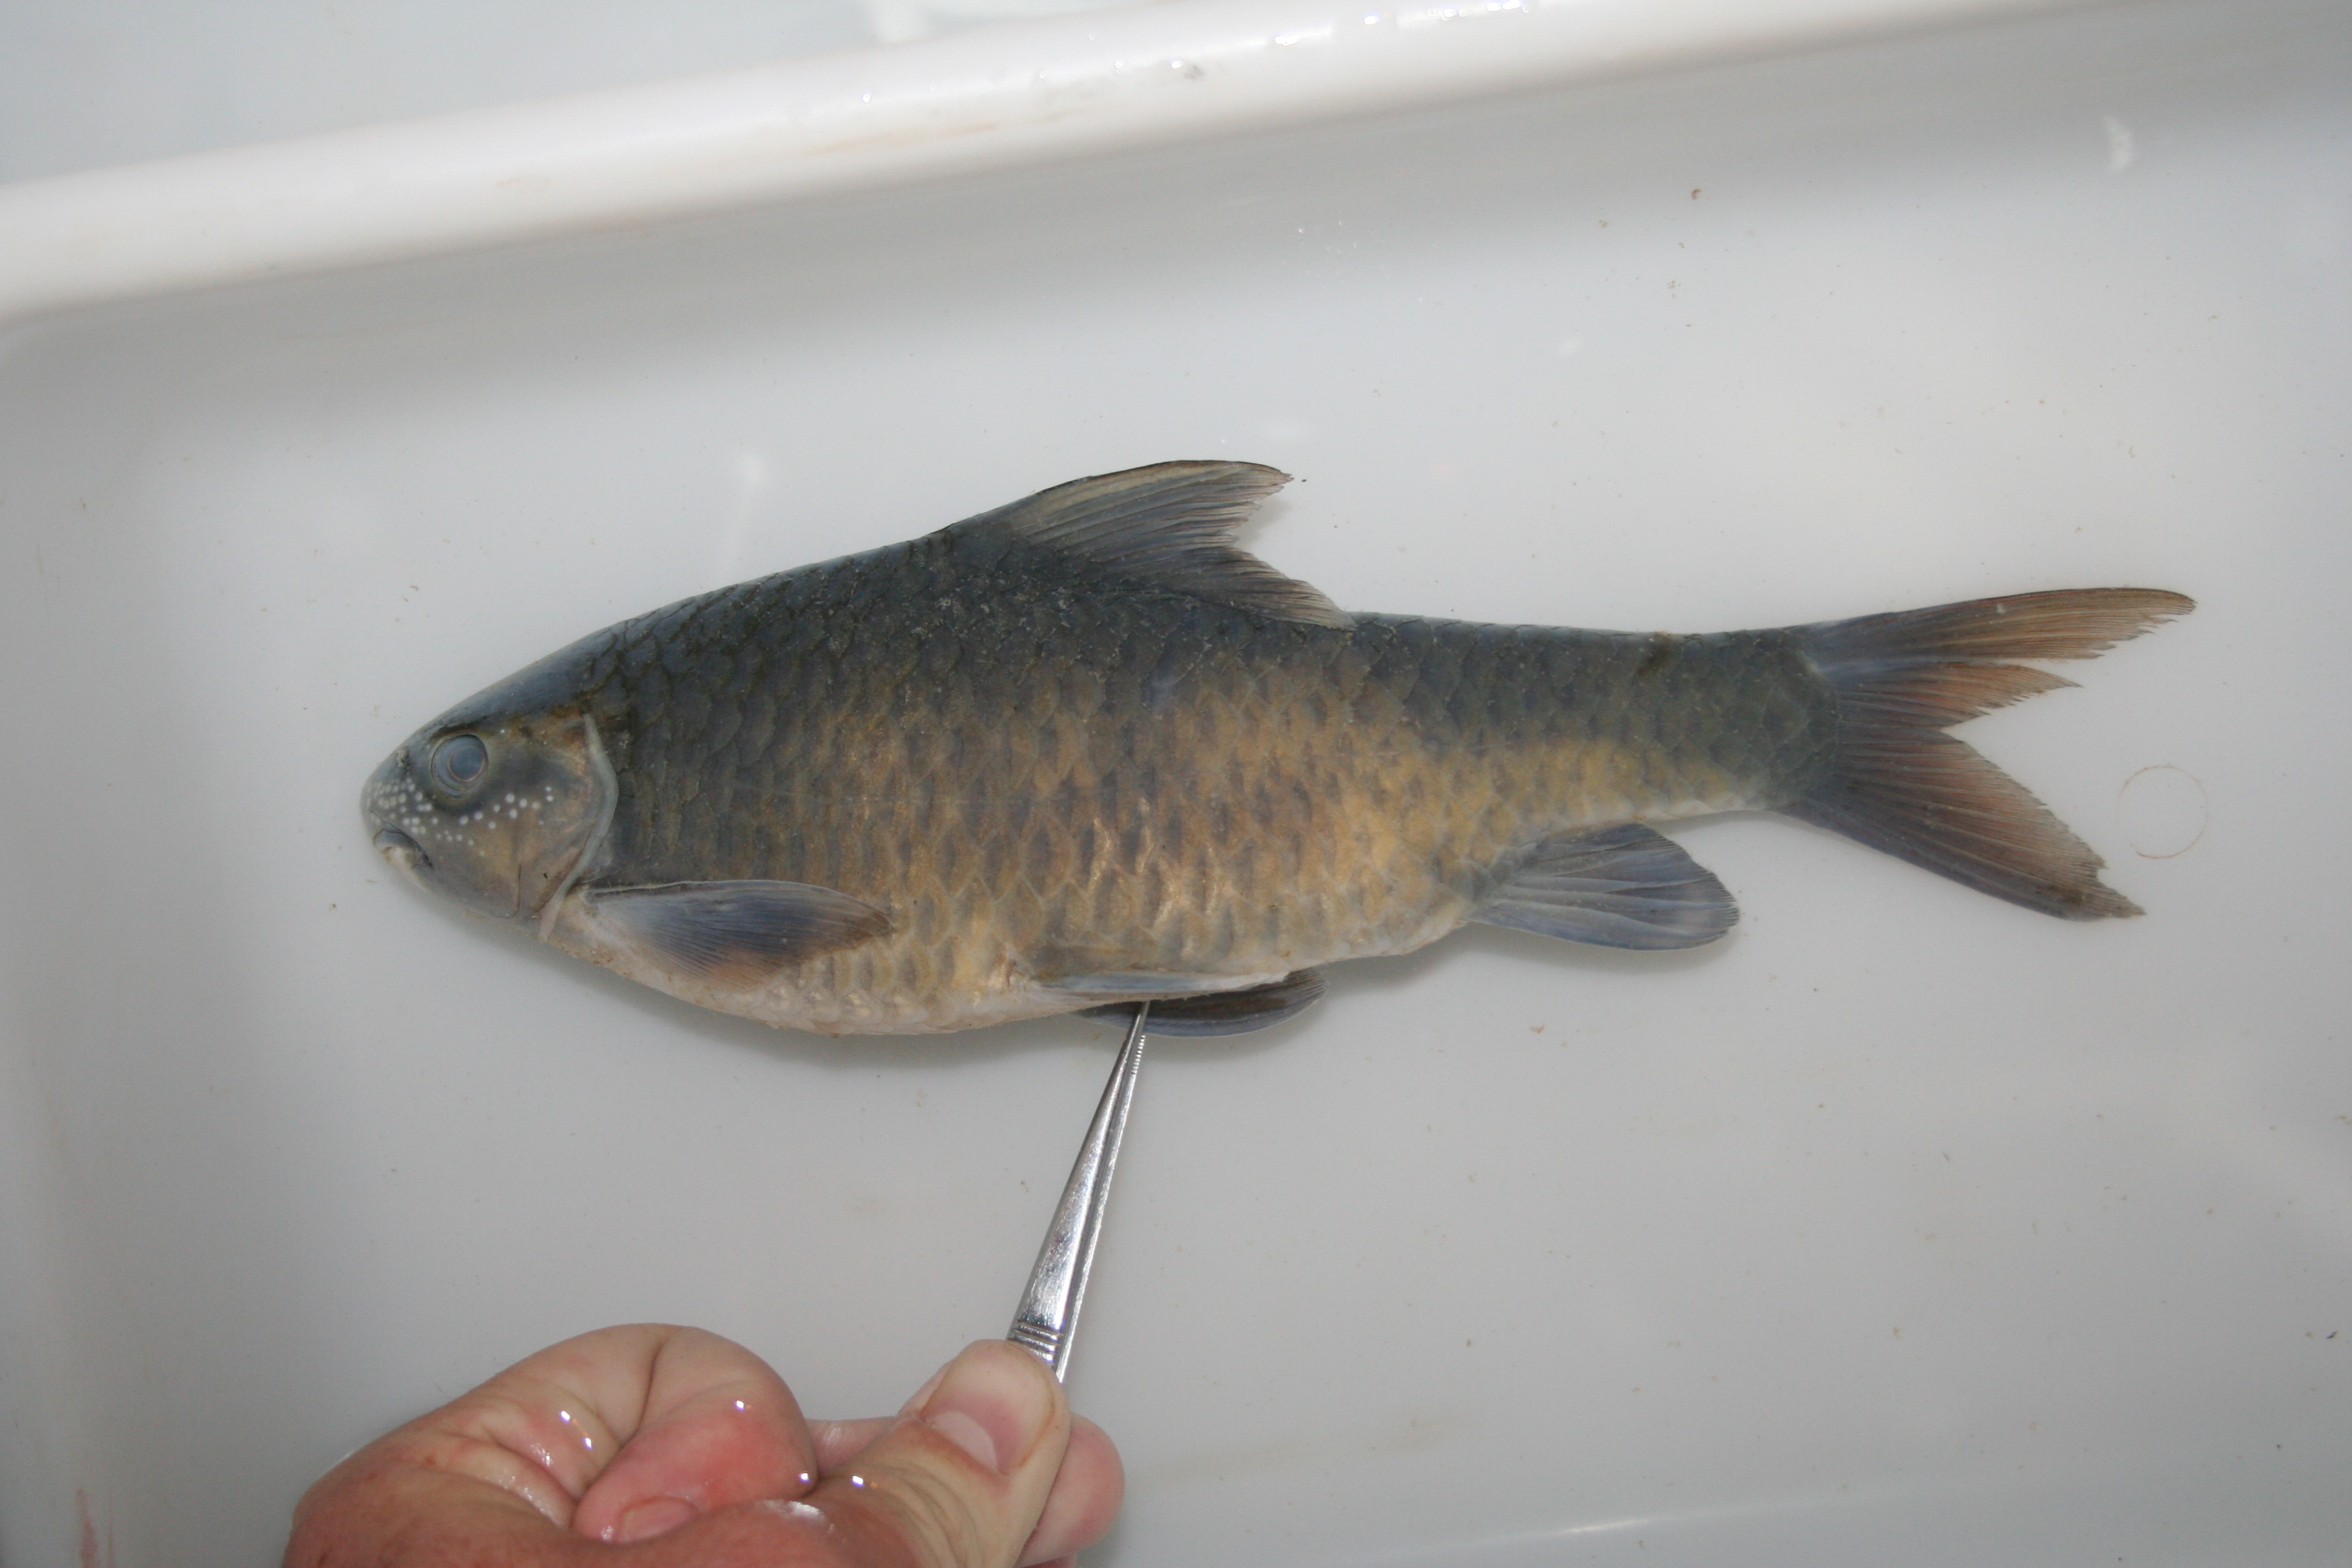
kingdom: Animalia
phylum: Chordata
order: Cypriniformes
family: Cyprinidae
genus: Labeobarbus
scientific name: Labeobarbus
